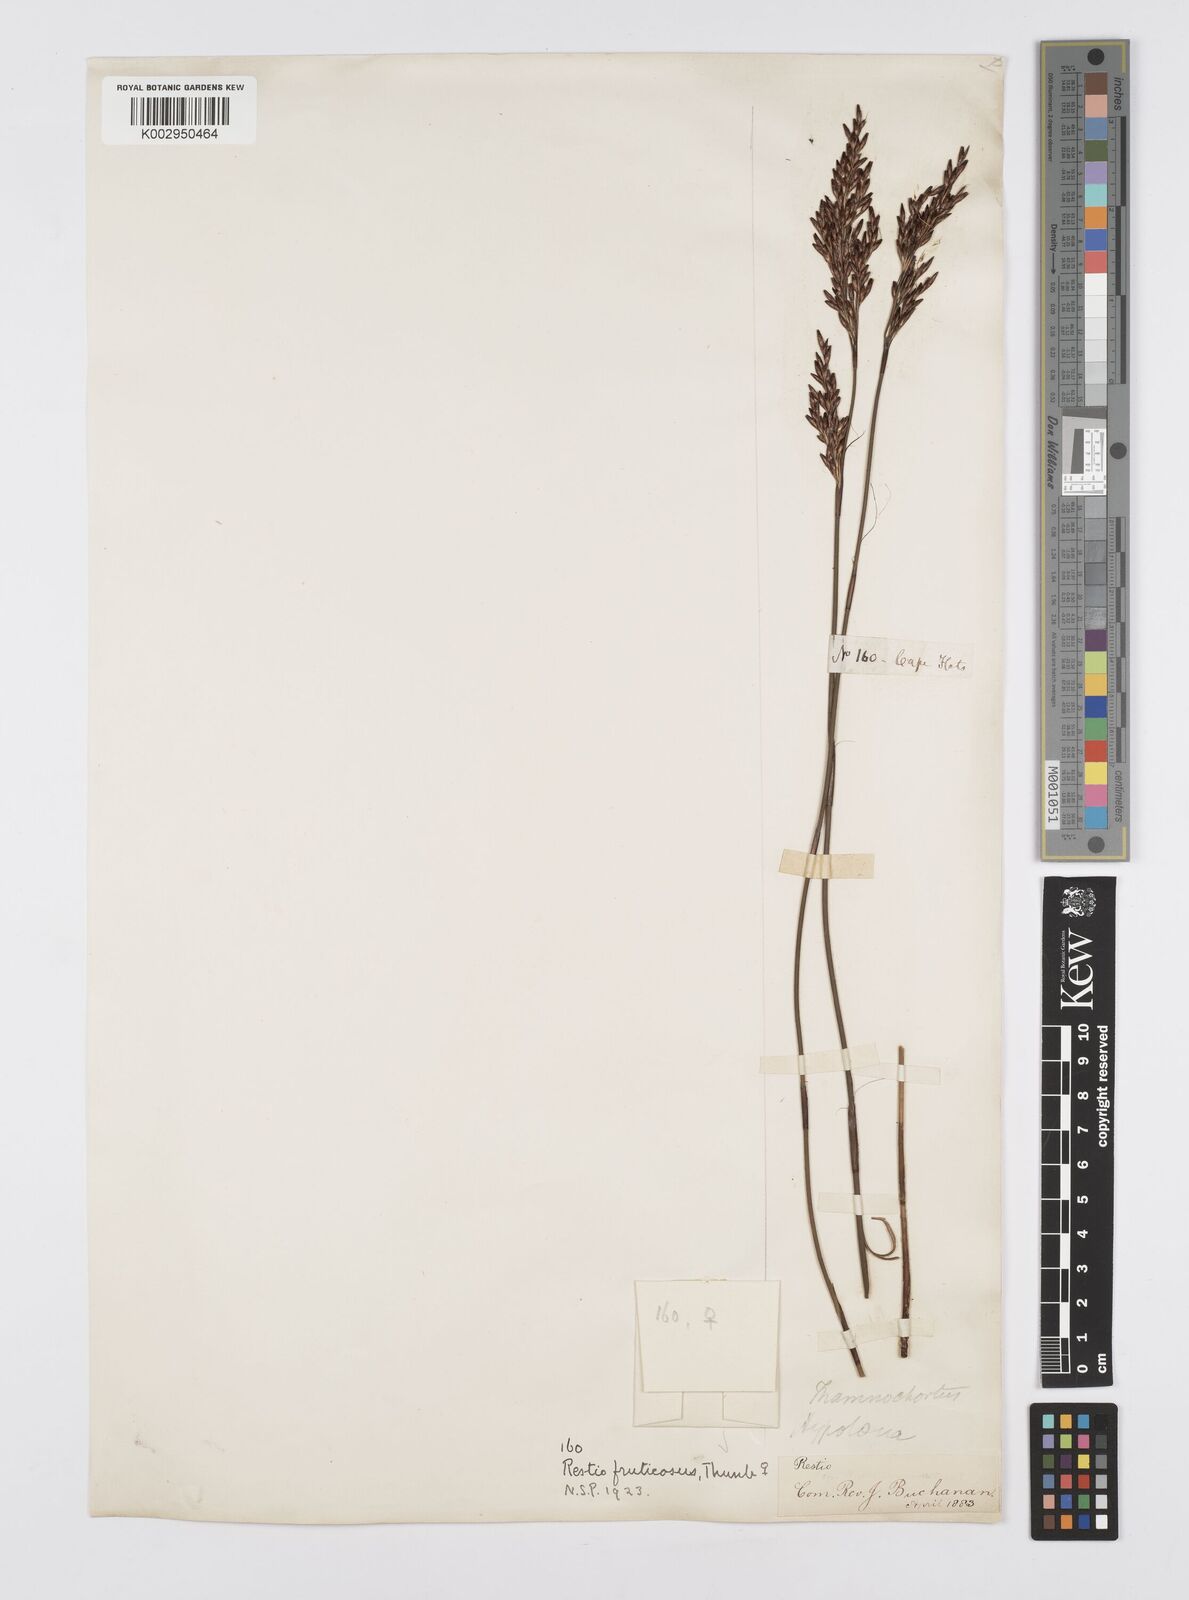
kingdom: Plantae
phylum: Tracheophyta
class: Liliopsida
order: Poales
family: Restionaceae
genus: Rhodocoma
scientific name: Rhodocoma fruticosa
